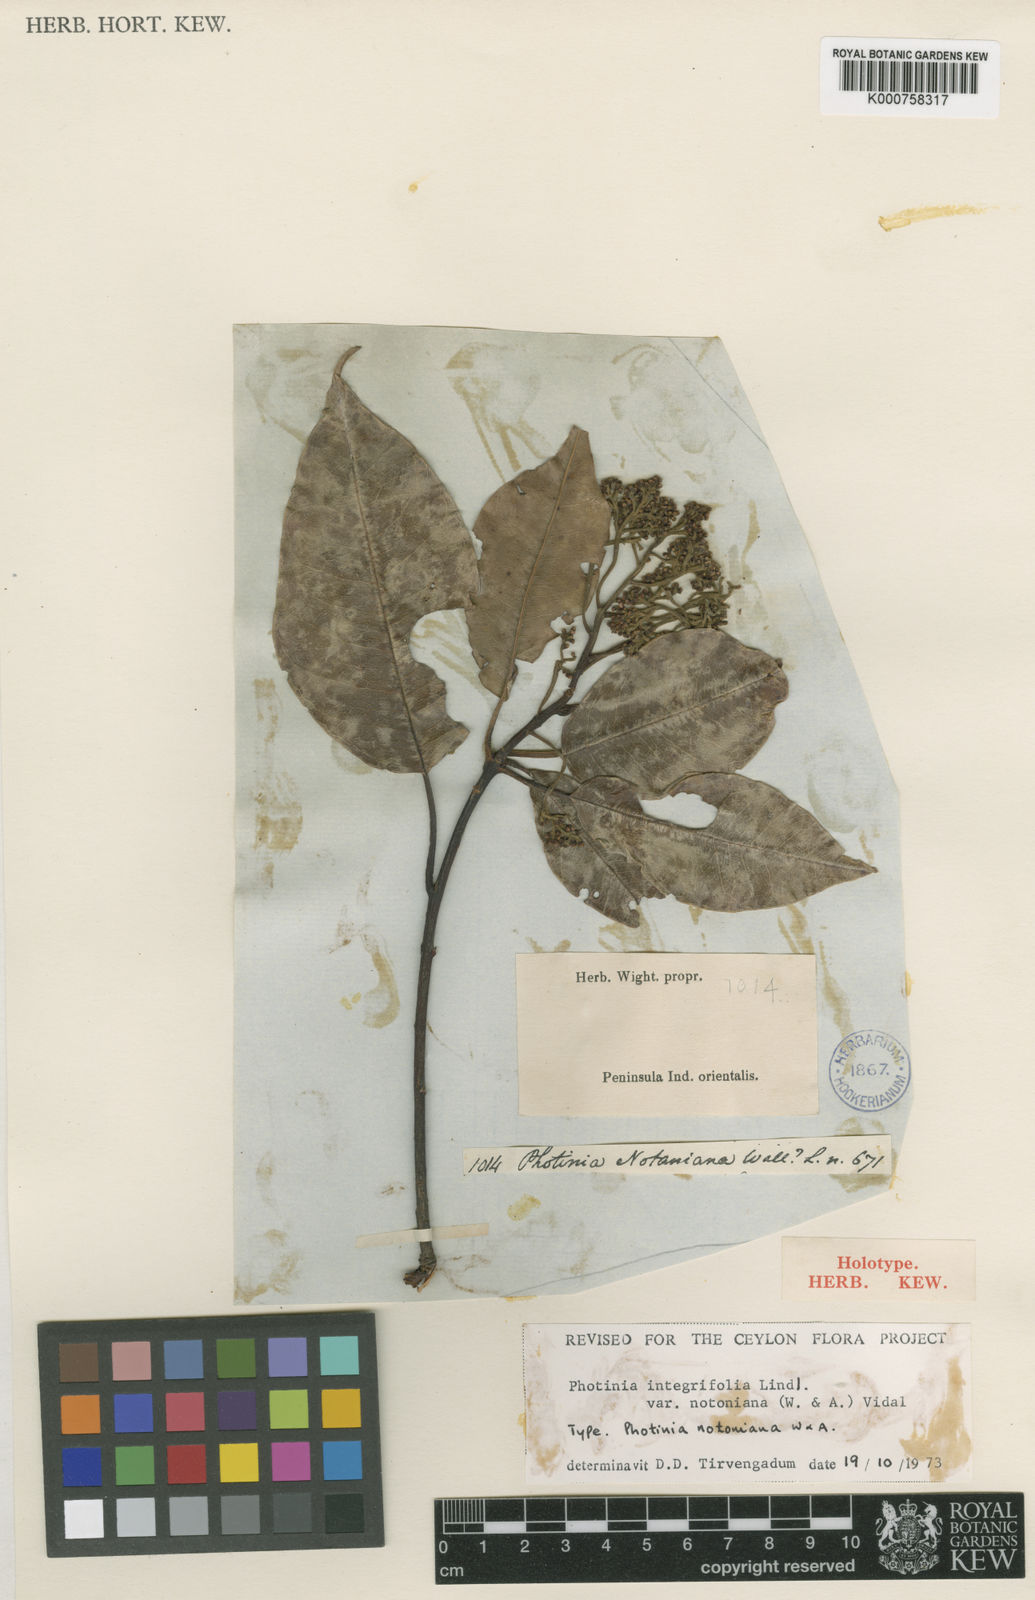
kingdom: Plantae
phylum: Tracheophyta
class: Magnoliopsida
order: Rosales
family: Rosaceae
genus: Photinia
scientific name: Photinia integrifolia
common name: Himalayan chokeberry
